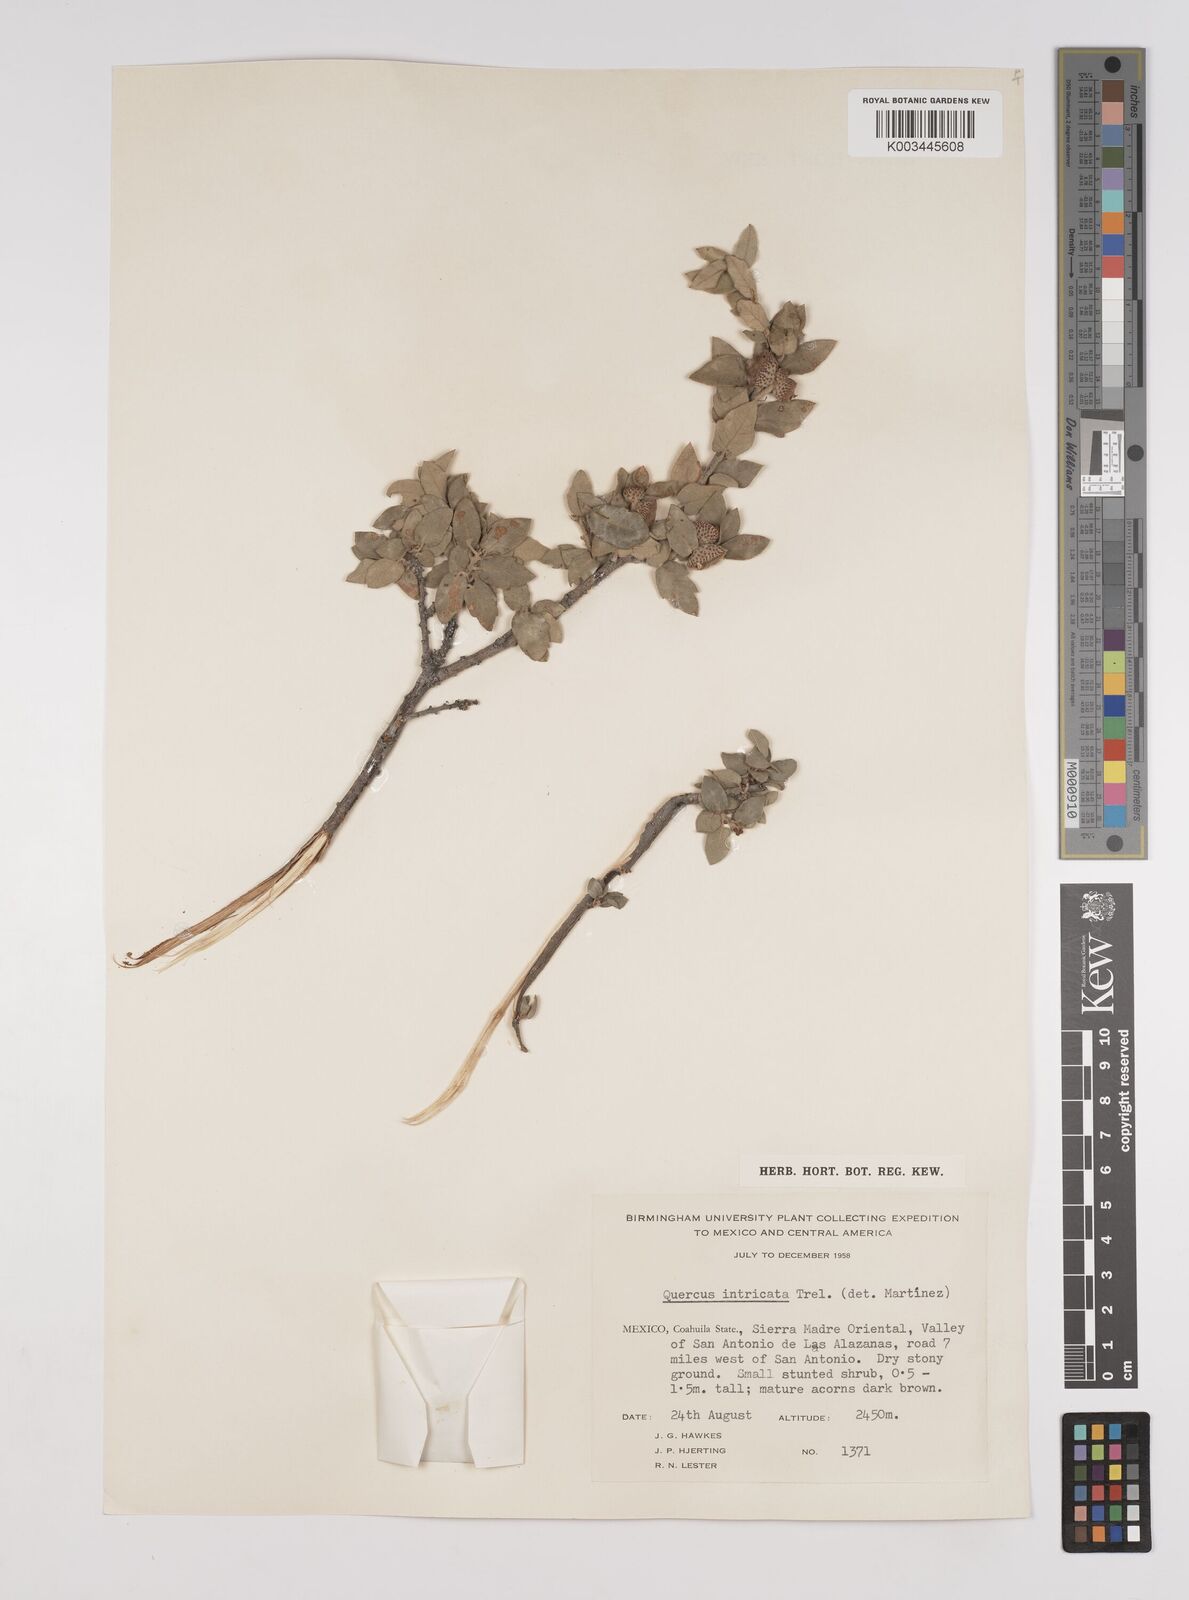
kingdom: Plantae
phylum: Tracheophyta
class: Magnoliopsida
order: Fagales
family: Fagaceae
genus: Quercus
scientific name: Quercus intricata
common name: Dwarf oak
